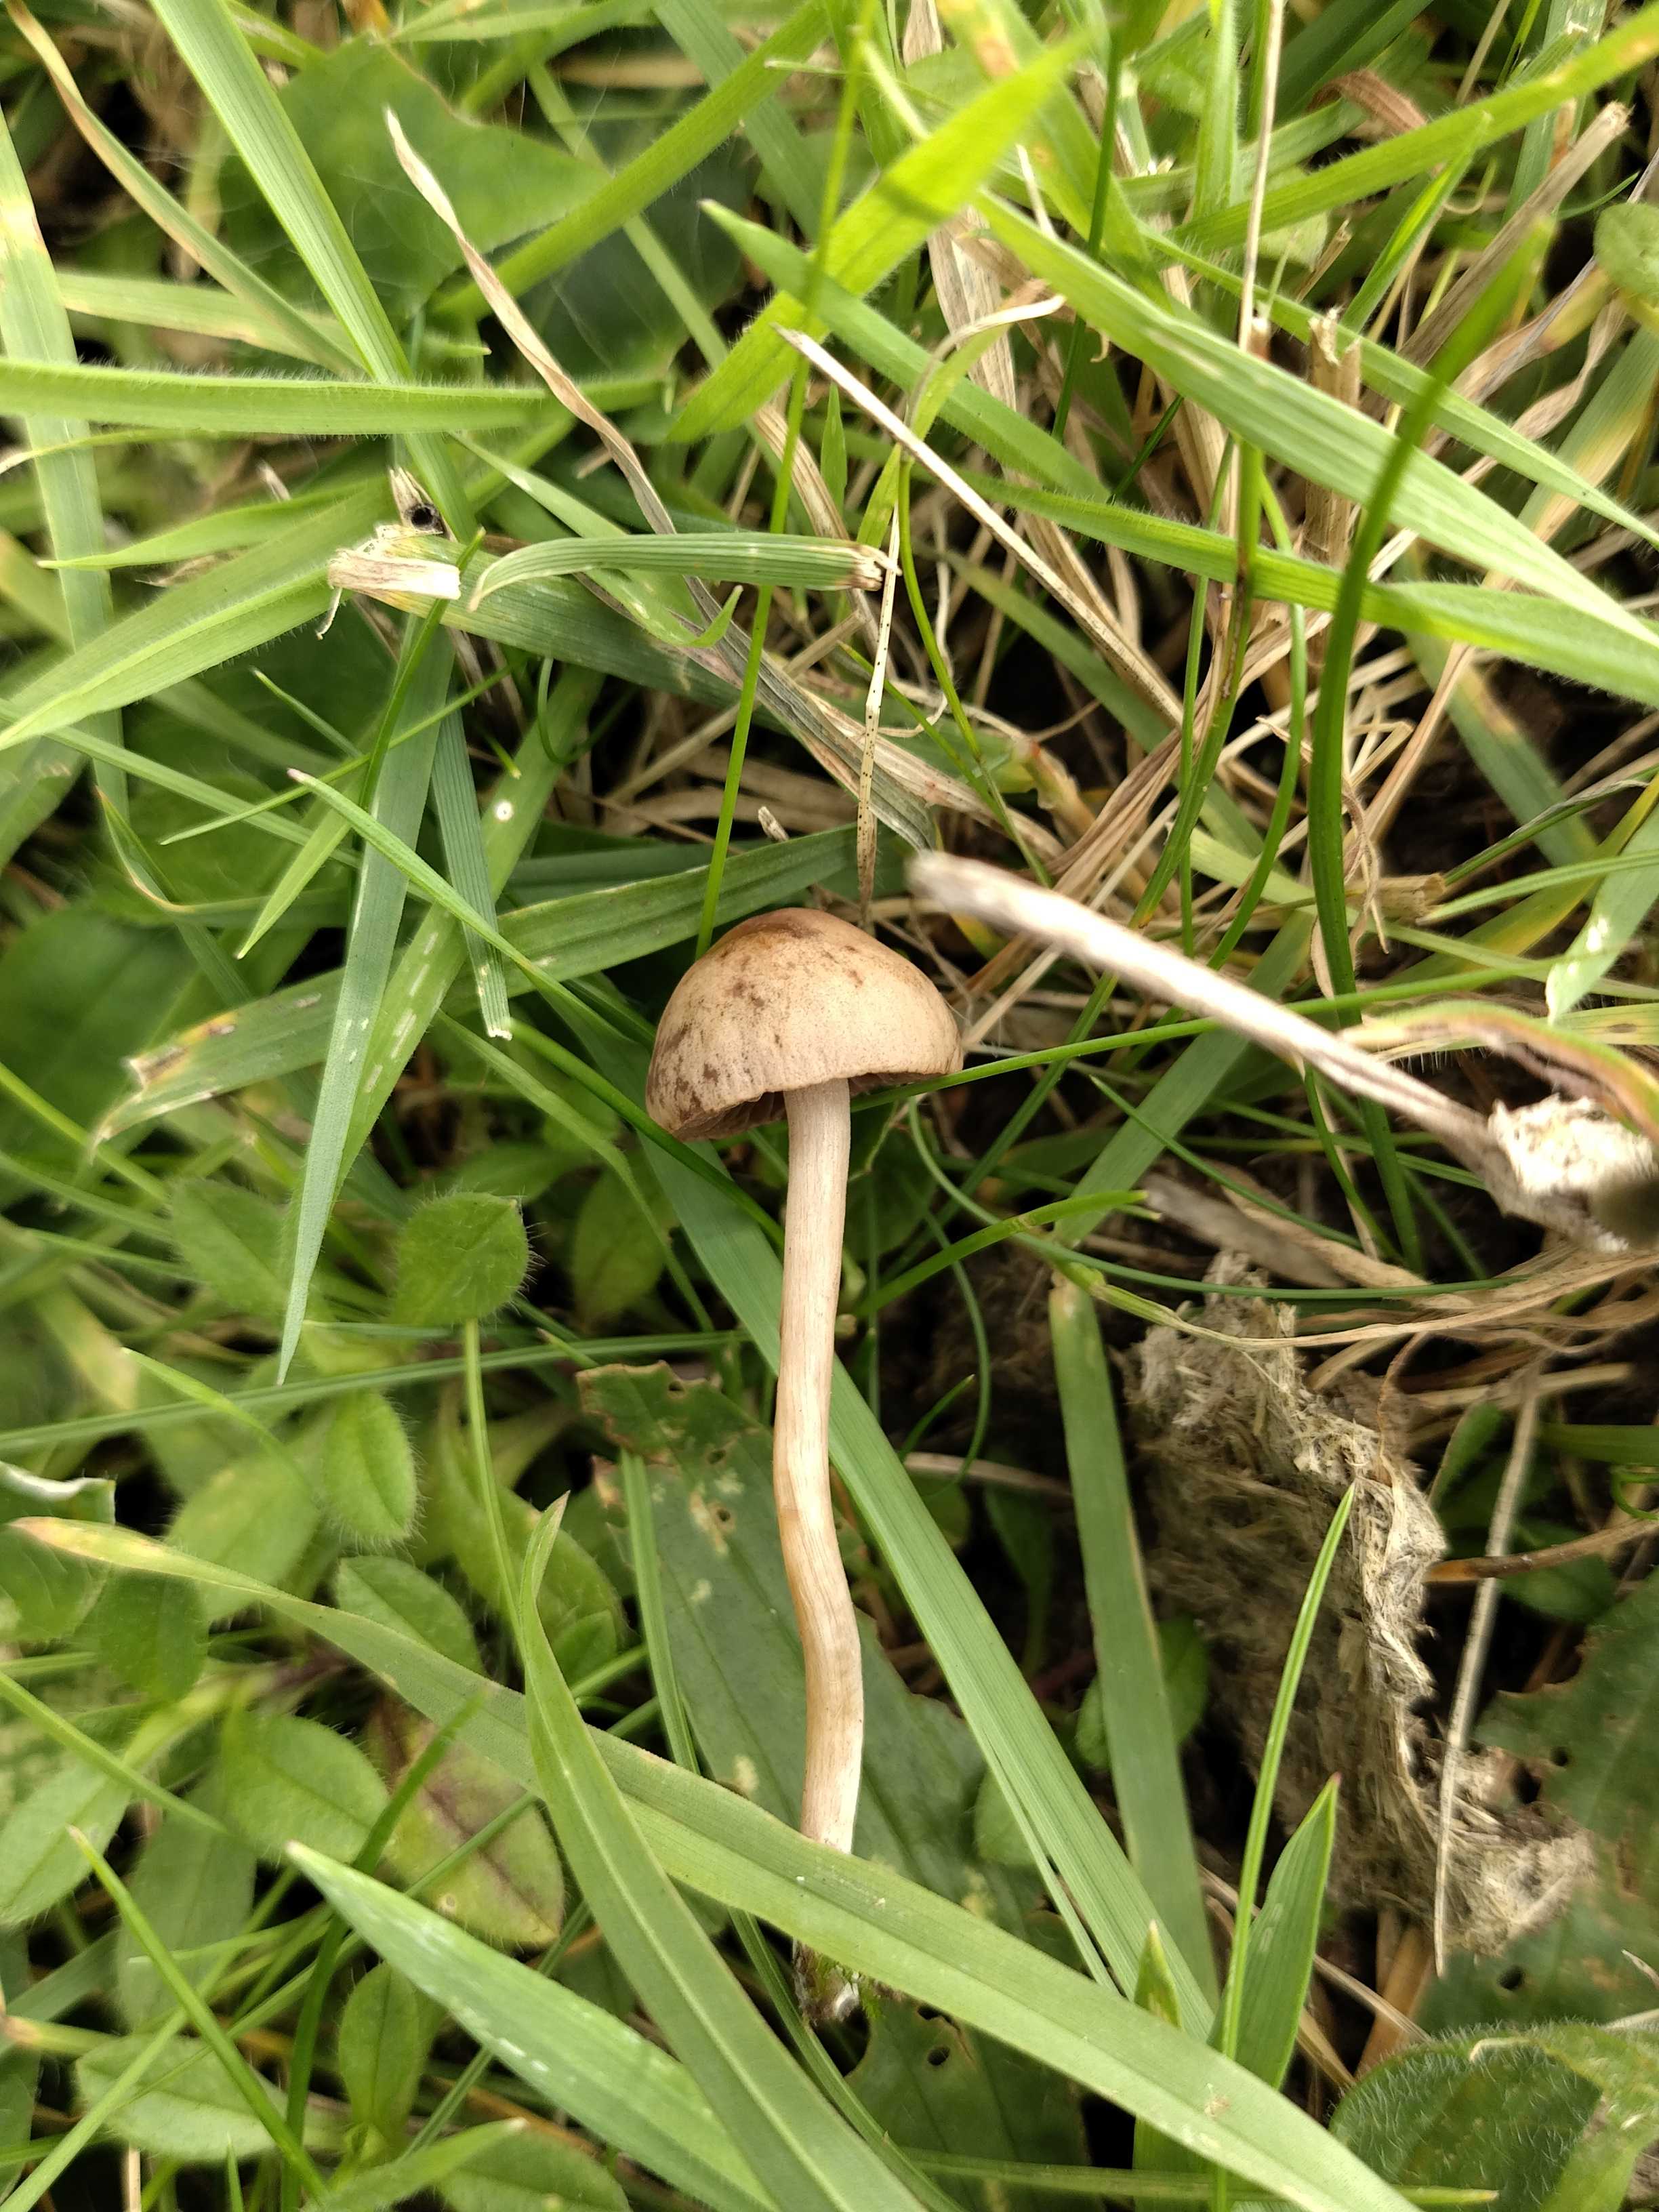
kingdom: Fungi
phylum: Basidiomycota
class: Agaricomycetes
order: Agaricales
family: Bolbitiaceae
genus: Panaeolina
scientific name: Panaeolina foenisecii
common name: høslætsvamp
